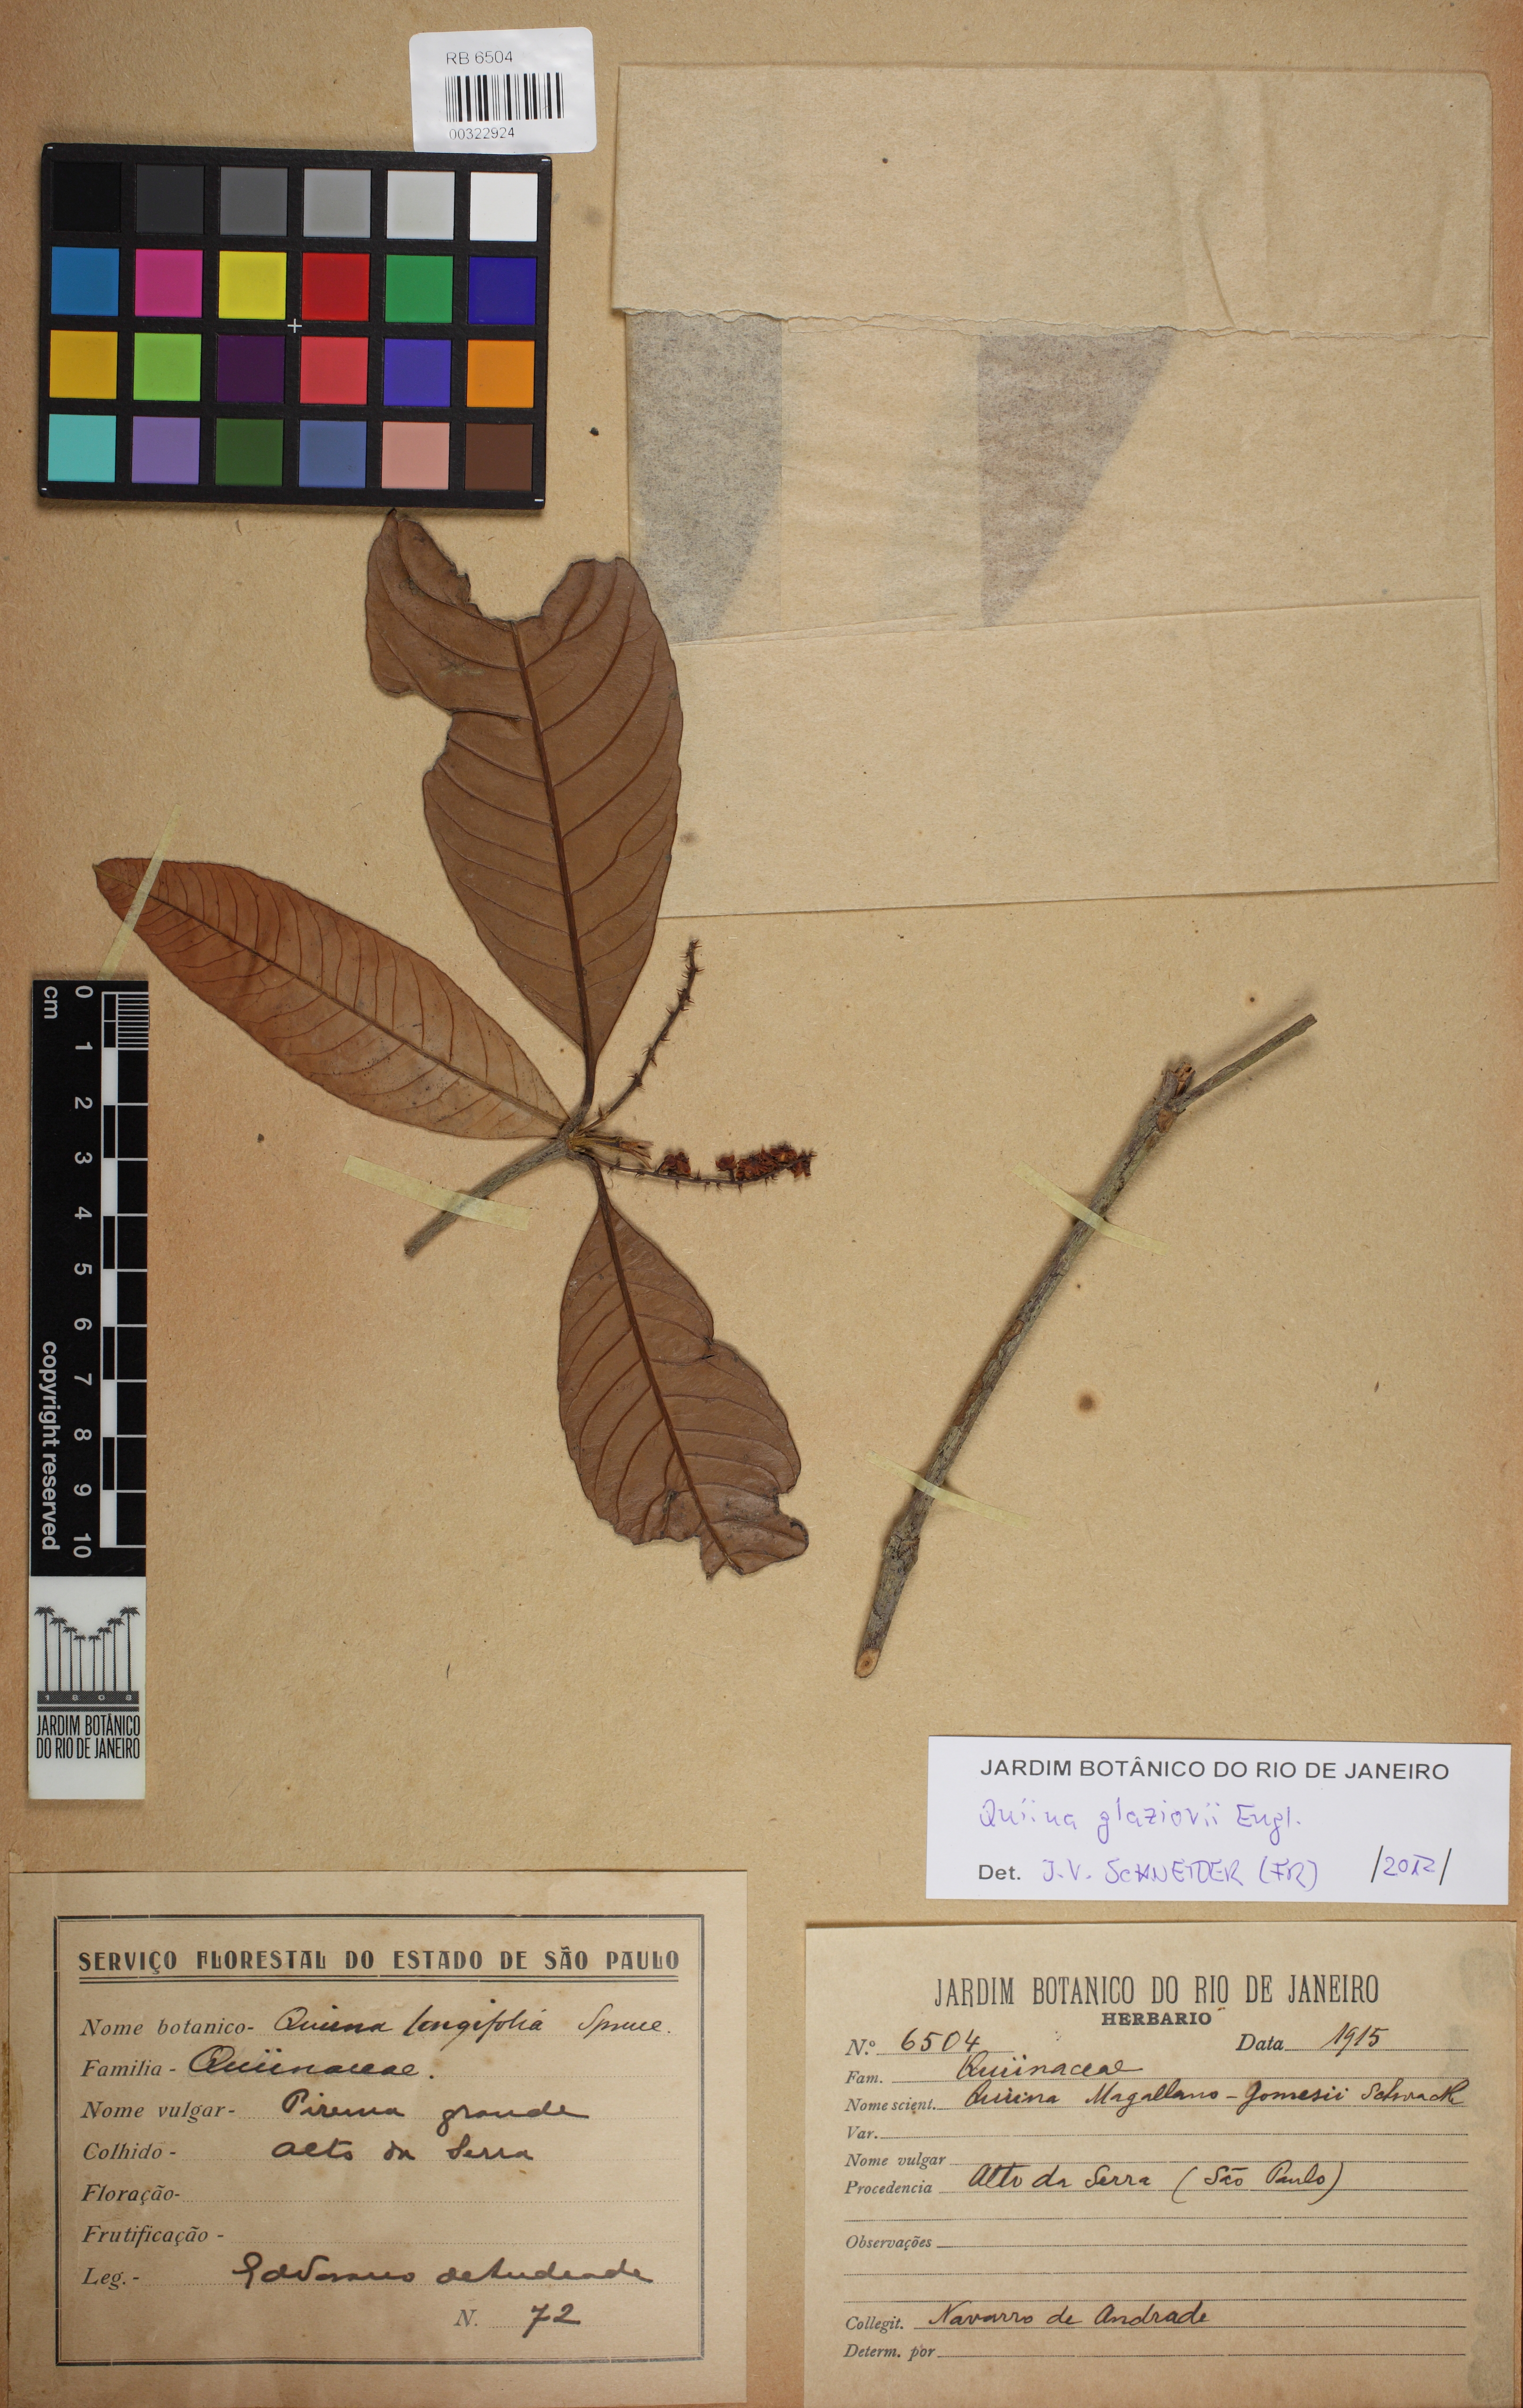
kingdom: Plantae
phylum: Tracheophyta
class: Magnoliopsida
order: Malpighiales
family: Quiinaceae
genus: Quiina
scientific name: Quiina glaziovii
